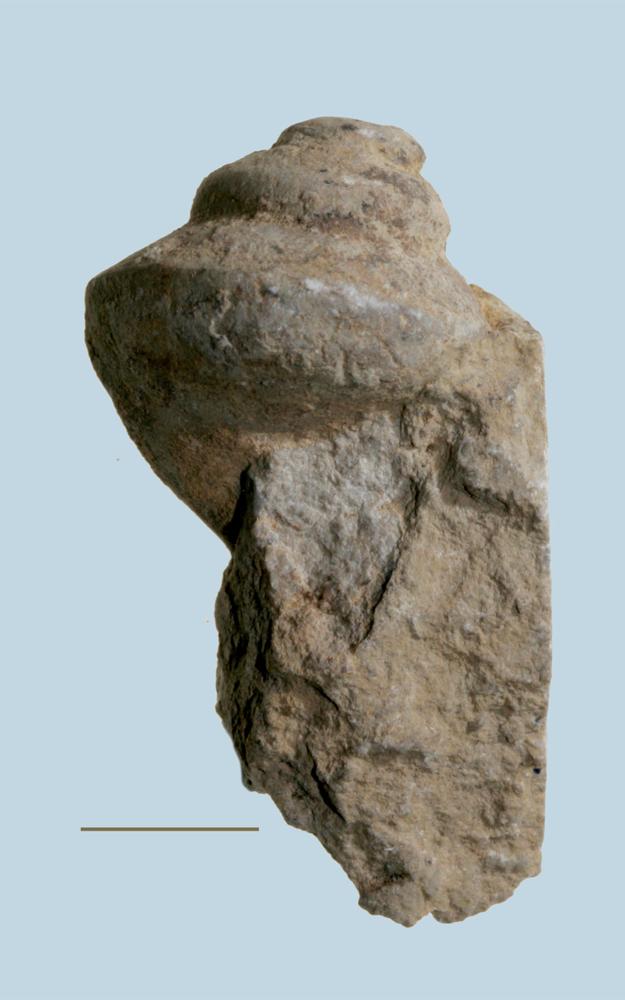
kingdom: Animalia
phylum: Mollusca
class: Gastropoda
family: Lophospiridae
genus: Loxoplocus
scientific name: Loxoplocus Turbo silurica
